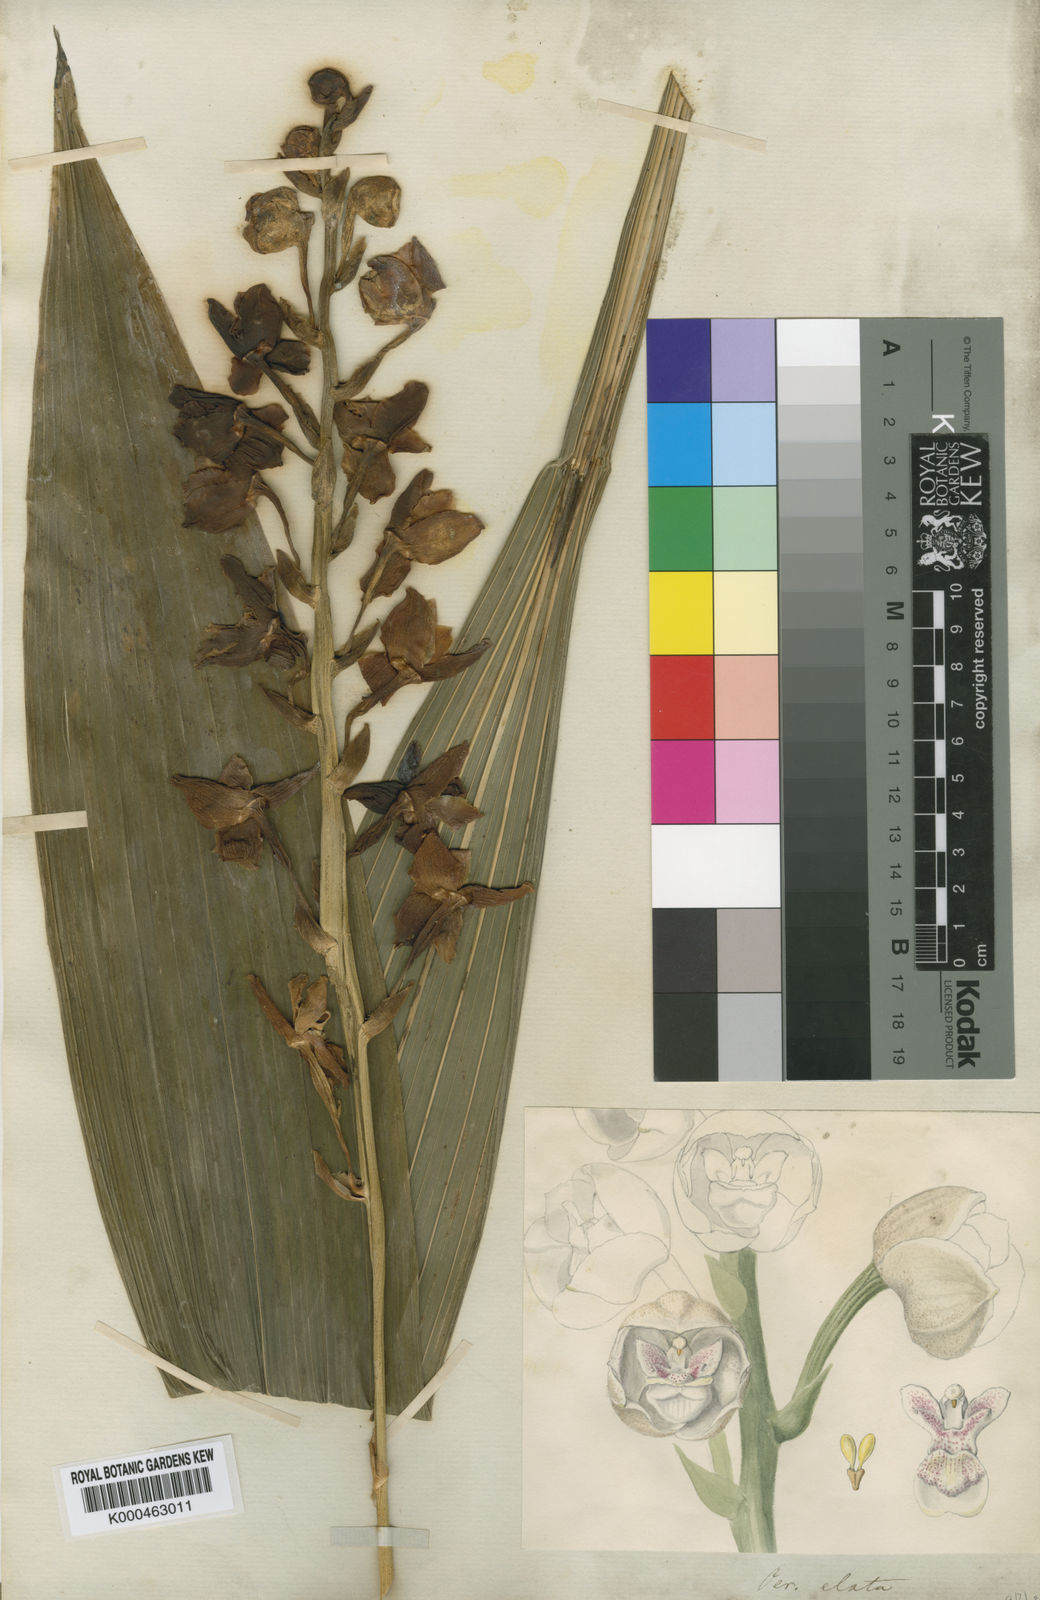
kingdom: Plantae
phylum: Tracheophyta
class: Liliopsida
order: Asparagales
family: Orchidaceae
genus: Peristeria
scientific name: Peristeria elata
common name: Dove orchid
